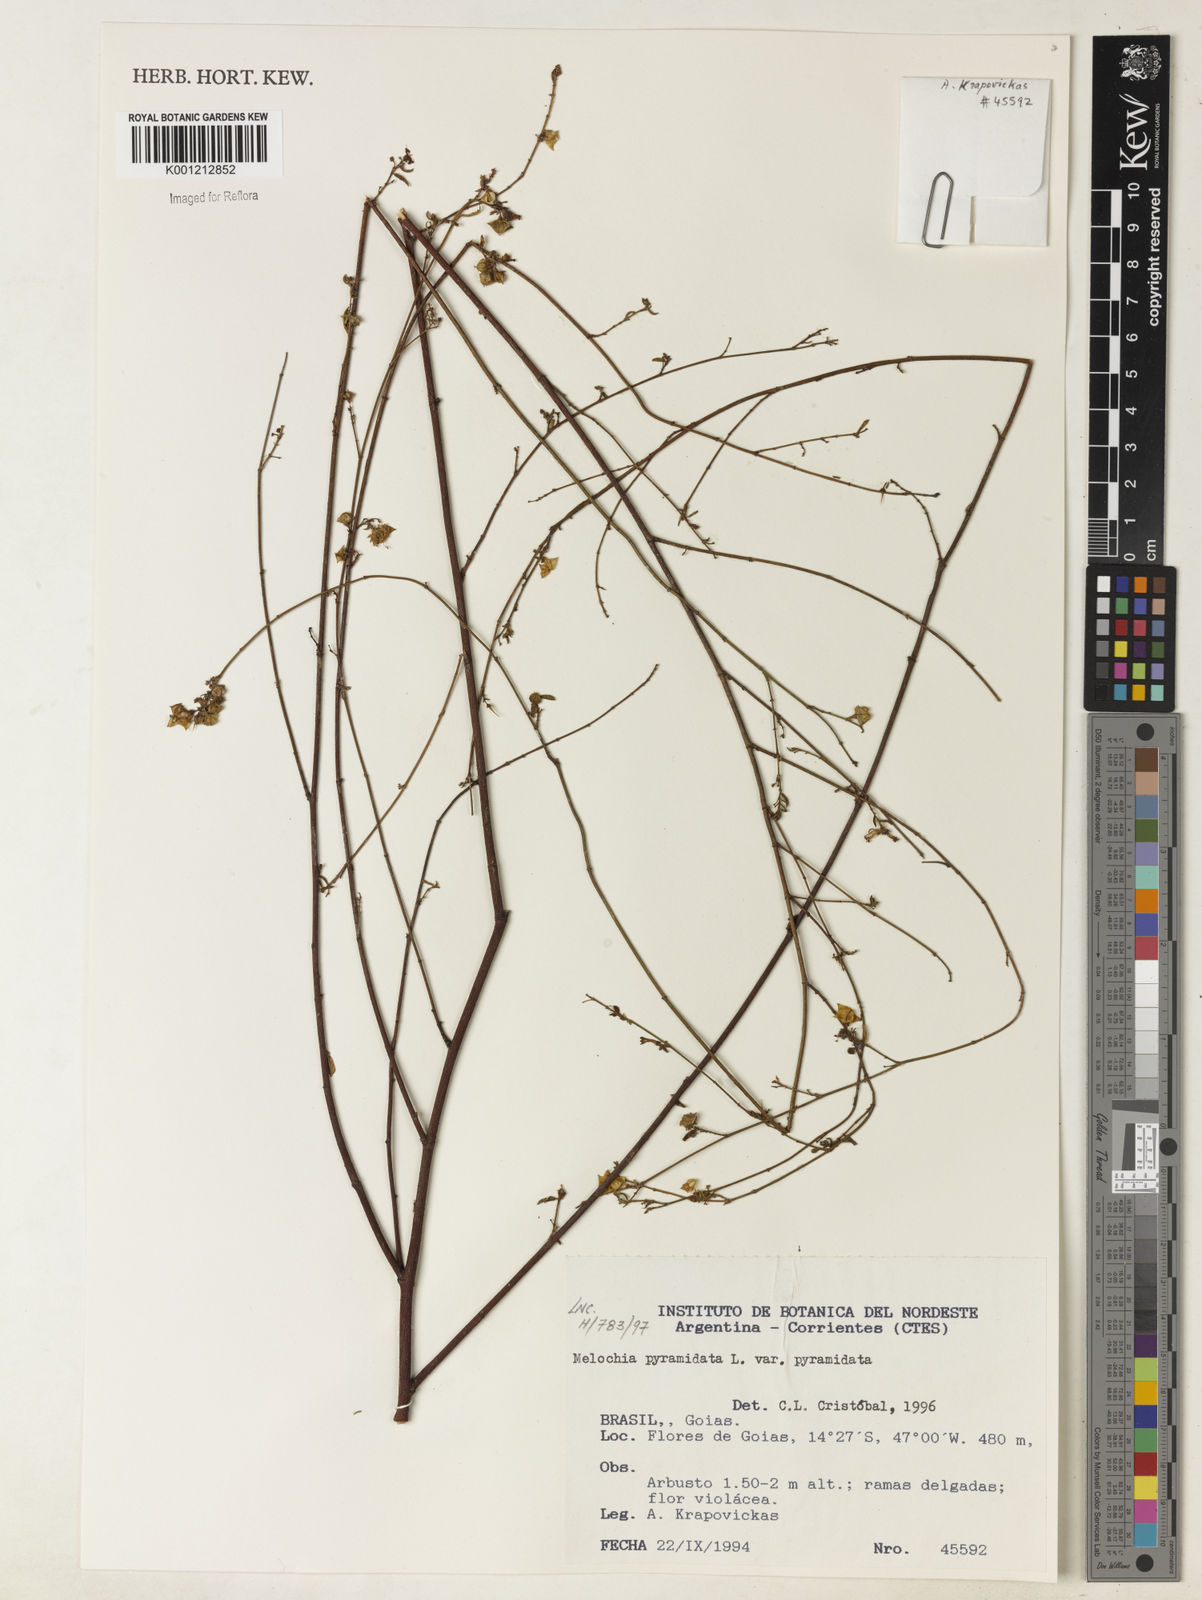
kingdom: Plantae
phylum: Tracheophyta
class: Magnoliopsida
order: Malvales
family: Malvaceae
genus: Melochia
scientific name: Melochia pyramidata
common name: Pyramidflower
